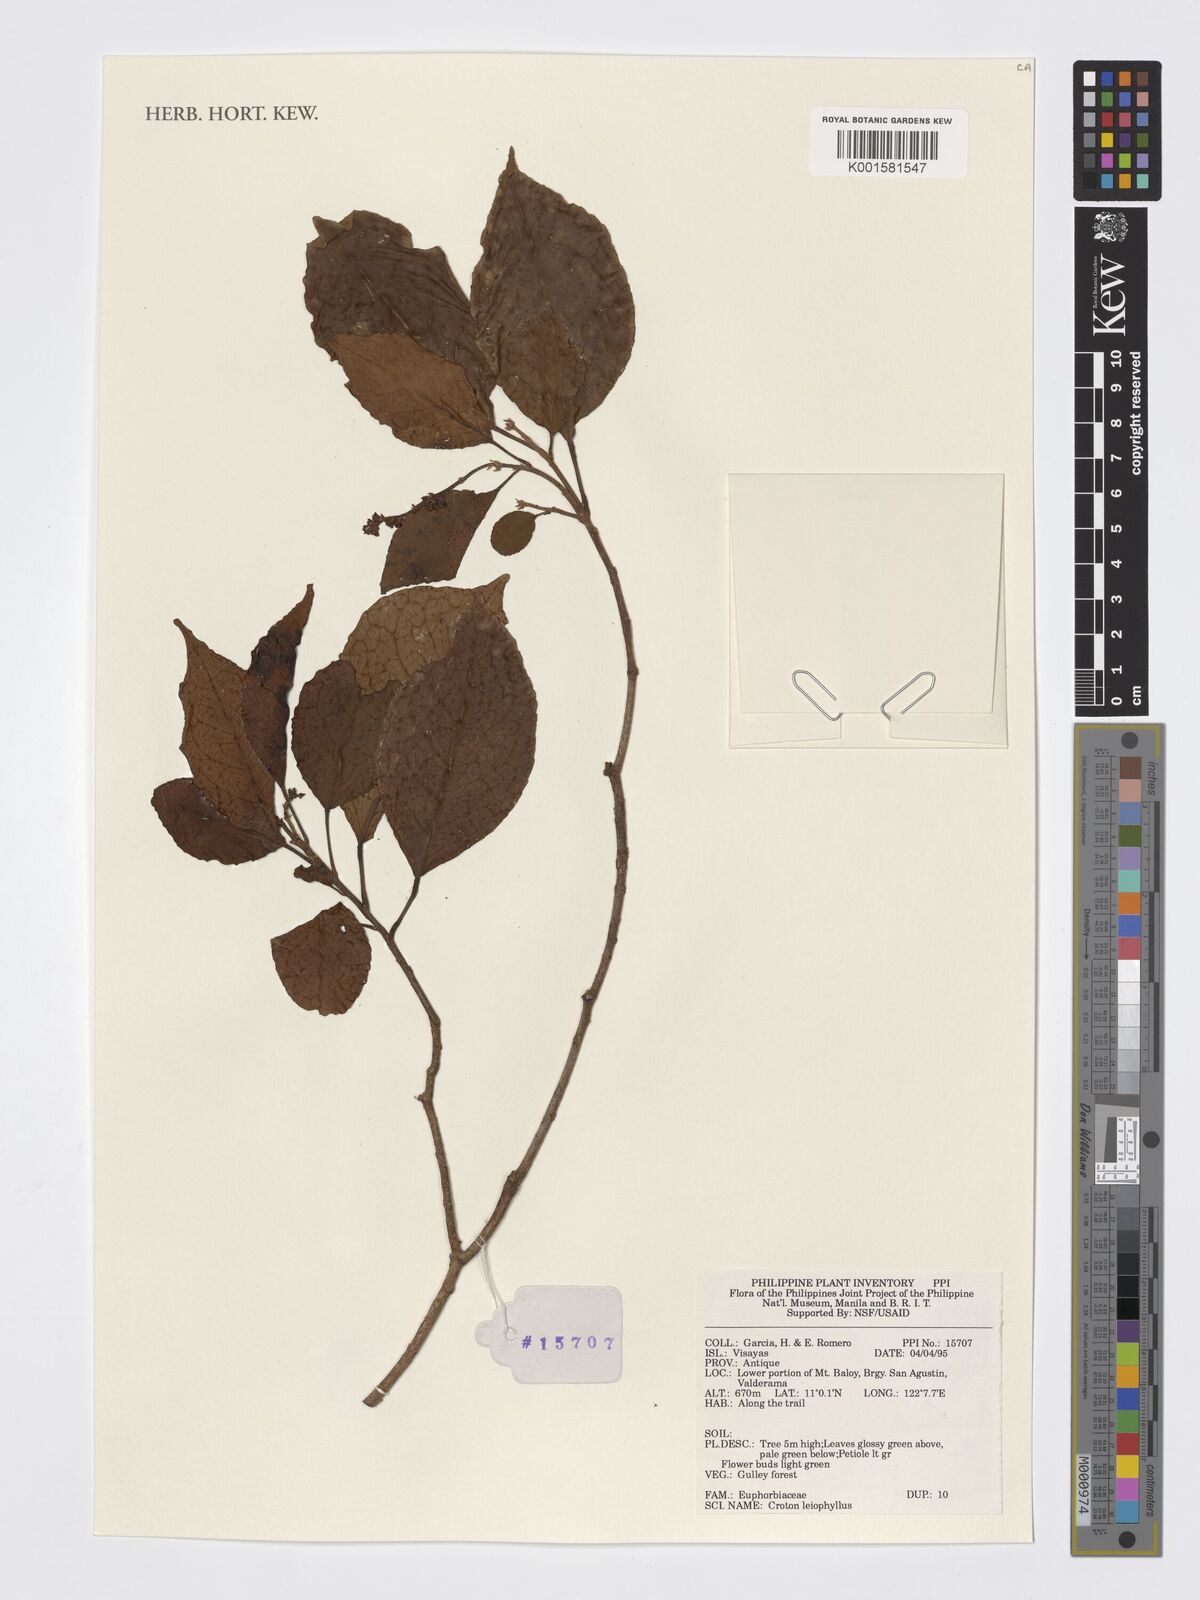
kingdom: Plantae
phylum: Tracheophyta
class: Magnoliopsida
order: Malpighiales
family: Euphorbiaceae
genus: Croton
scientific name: Croton leiophyllus
